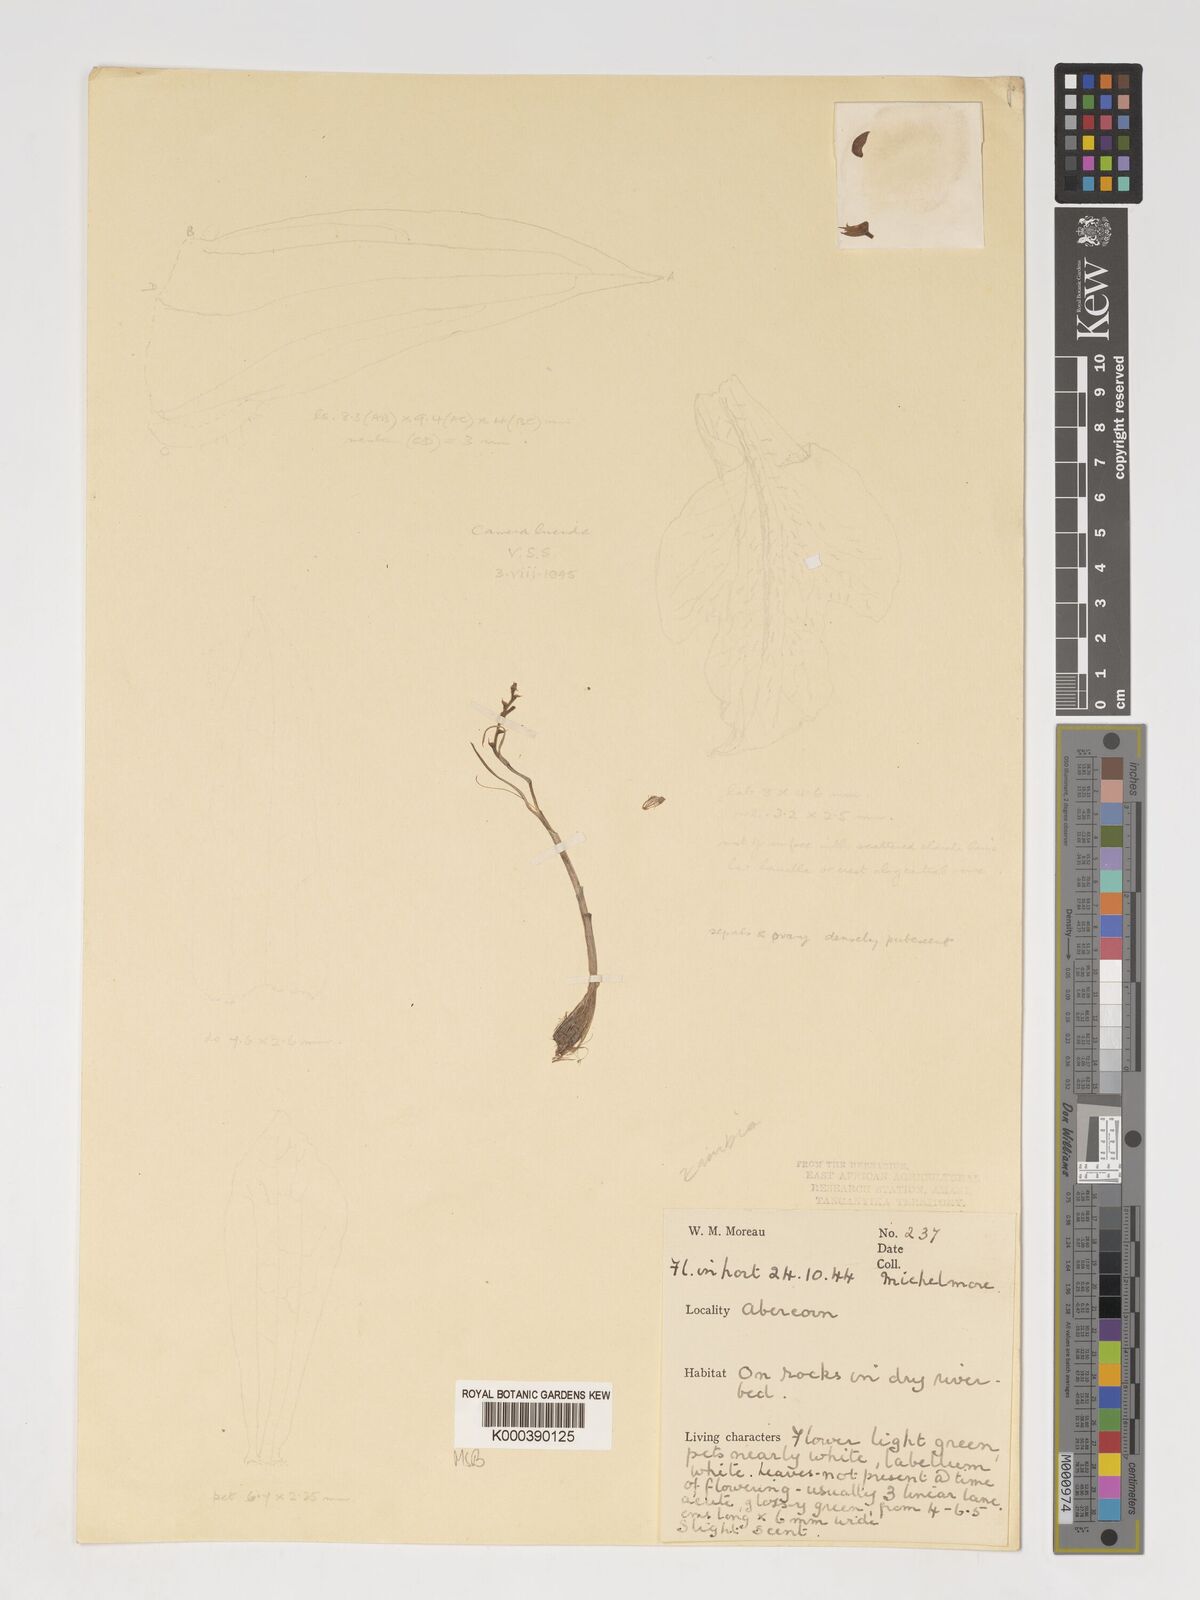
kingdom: Plantae
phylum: Tracheophyta
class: Liliopsida
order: Asparagales
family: Orchidaceae
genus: Polystachya
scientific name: Polystachya isochiloides
